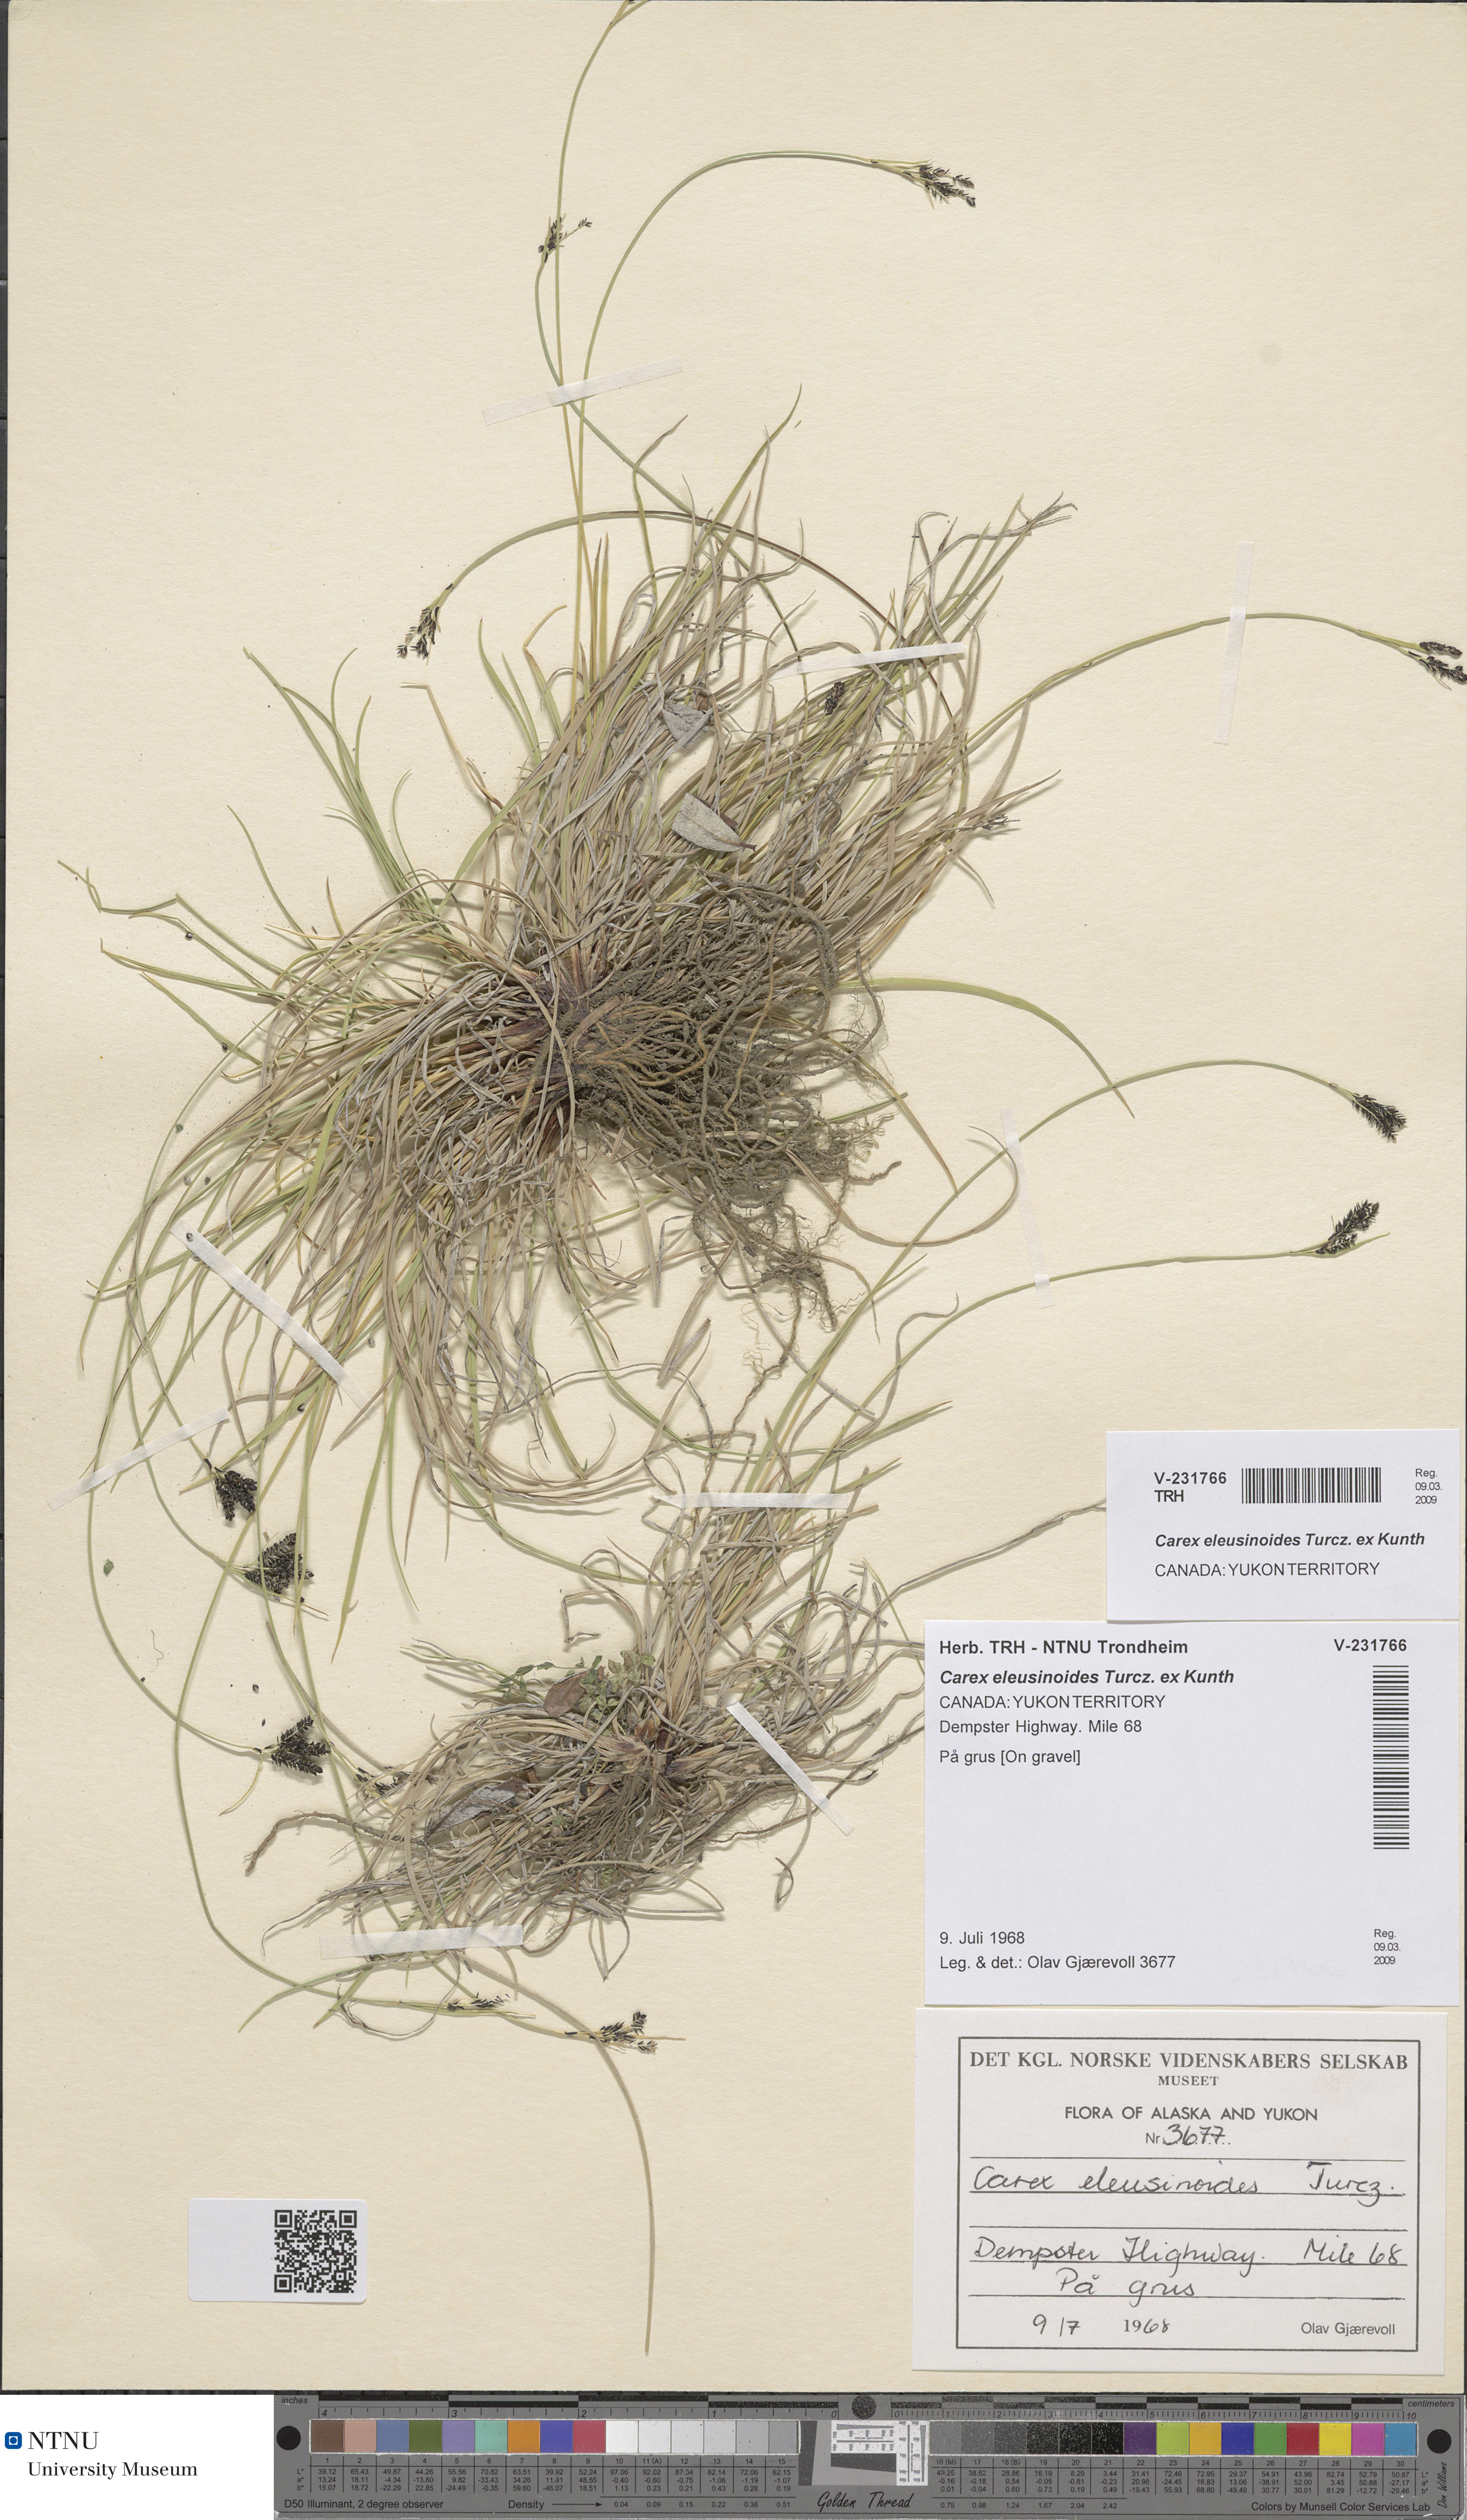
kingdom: Plantae
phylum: Tracheophyta
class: Liliopsida
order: Poales
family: Cyperaceae
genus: Carex
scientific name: Carex eleusinoides
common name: Goosegrass sedge
